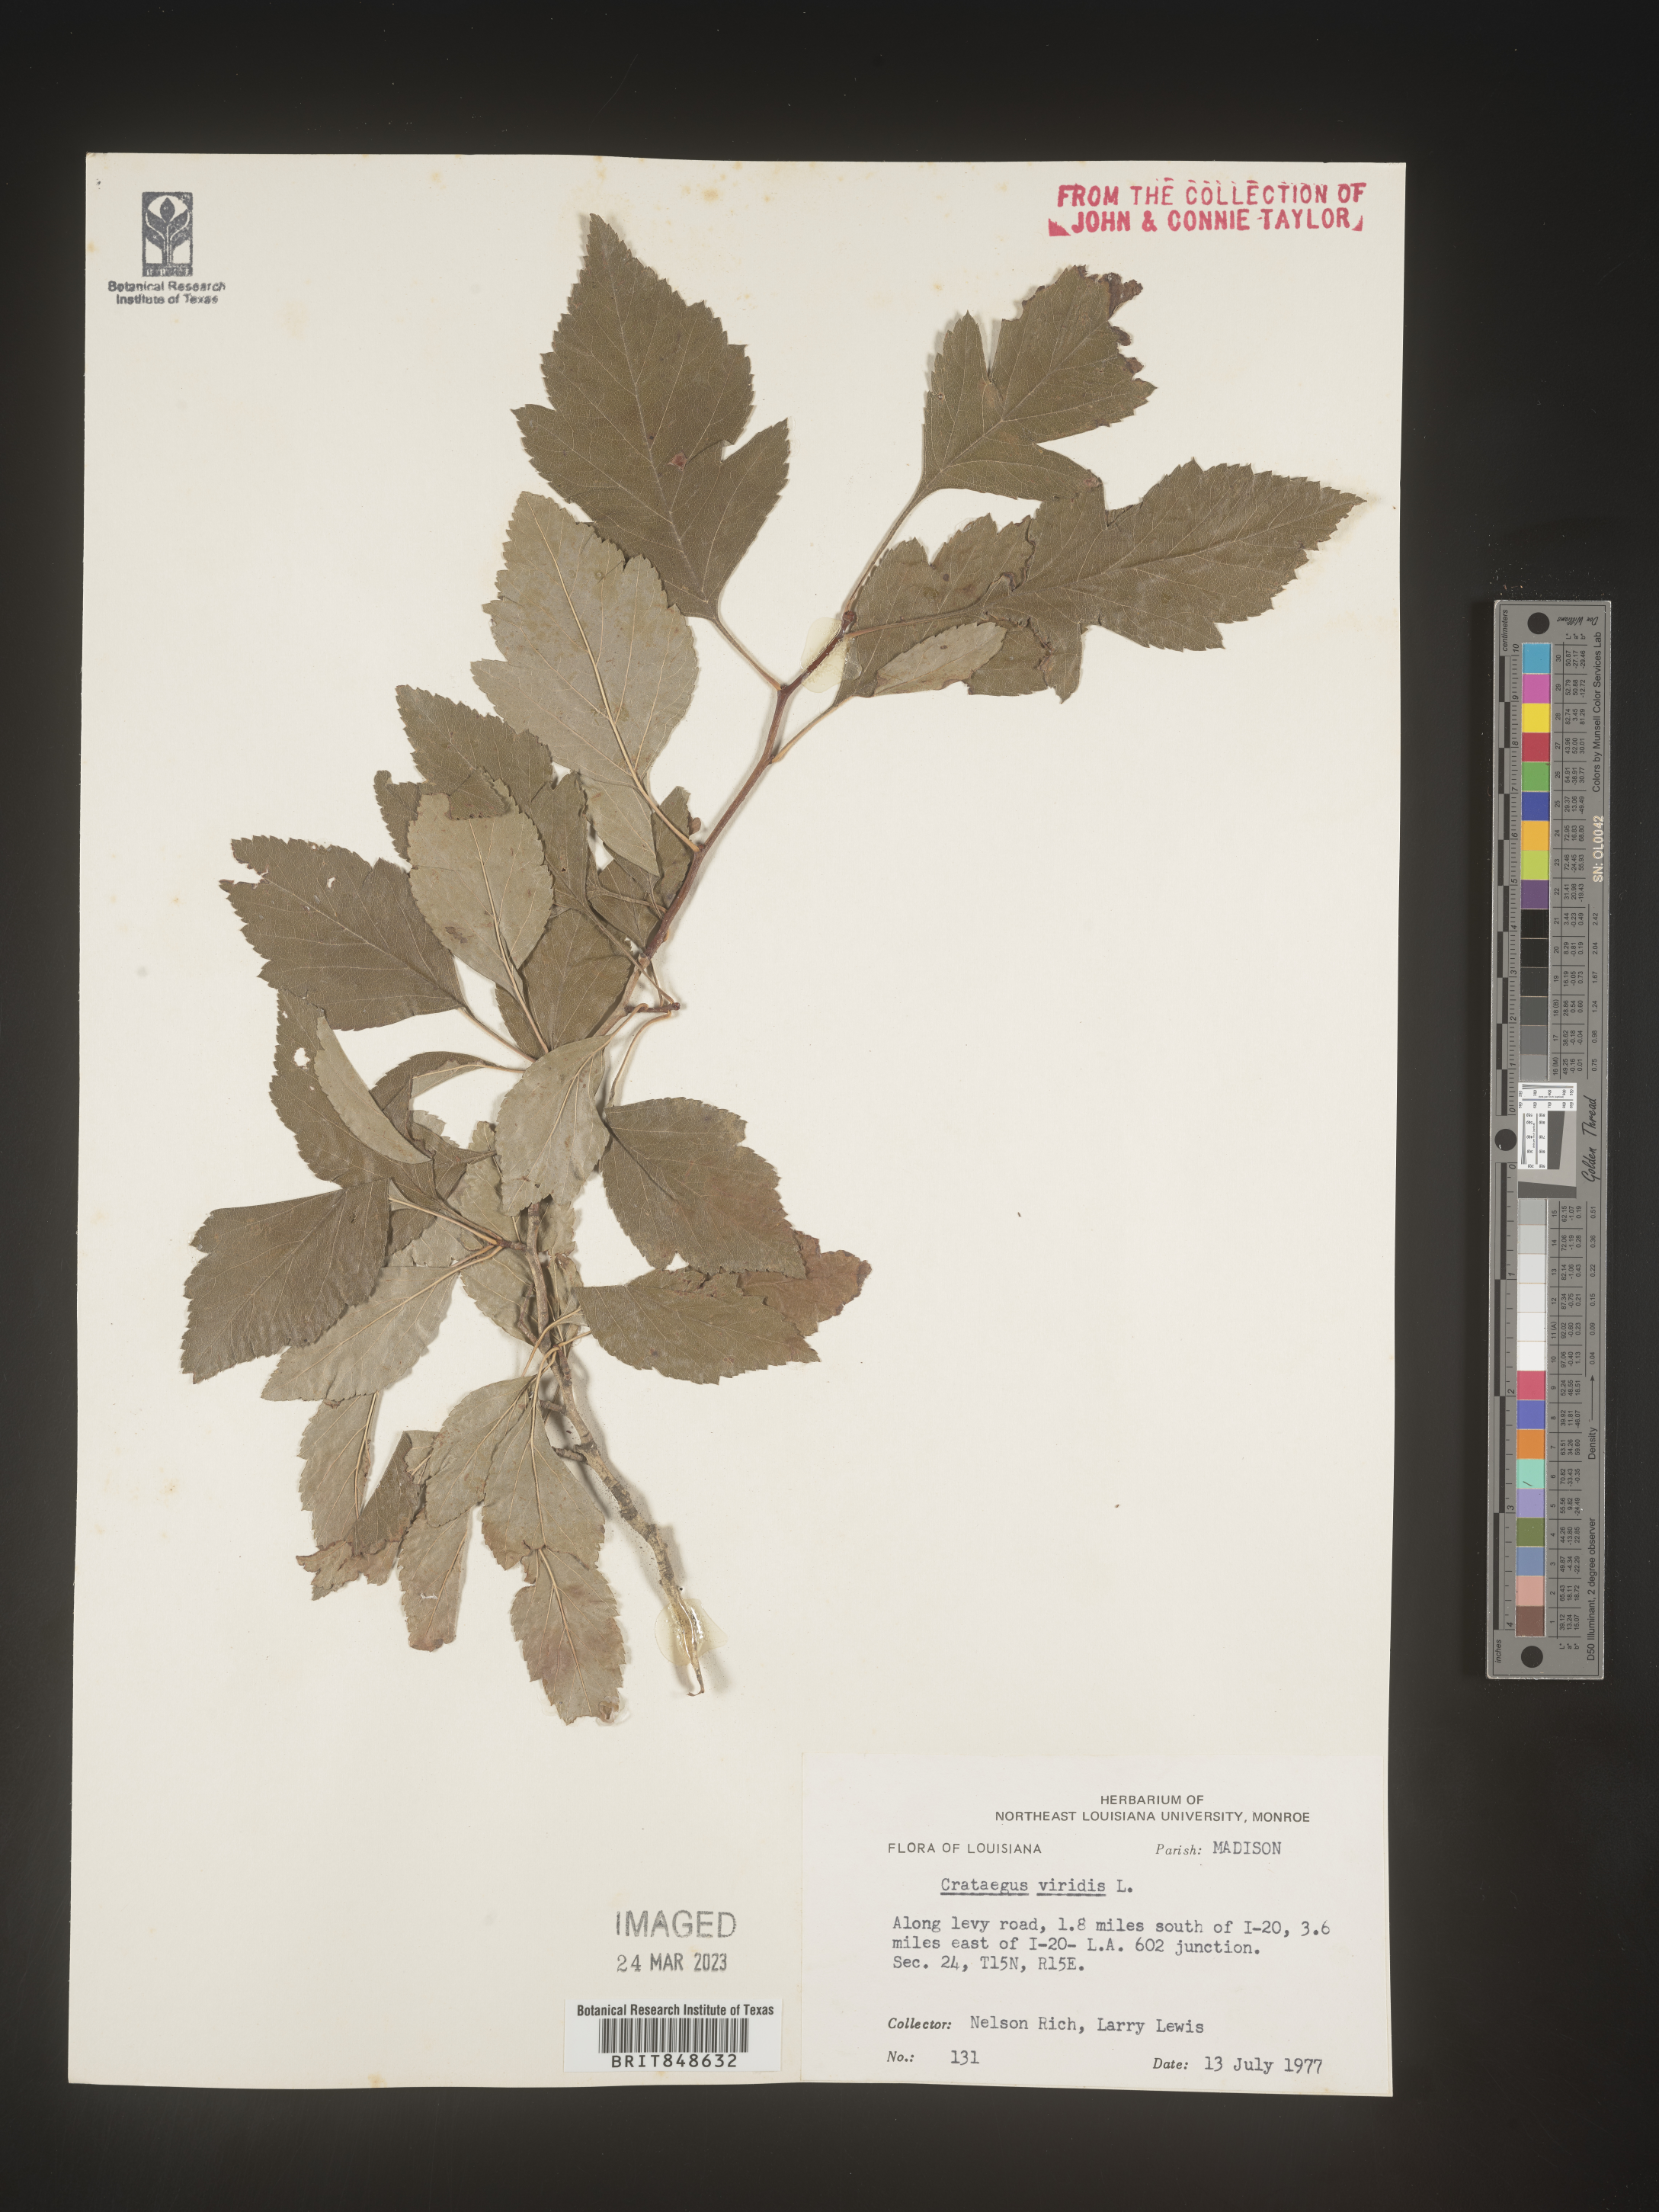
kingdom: Plantae
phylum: Tracheophyta
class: Magnoliopsida
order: Rosales
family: Rosaceae
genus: Crataegus
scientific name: Crataegus viridis
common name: Southernthorn
